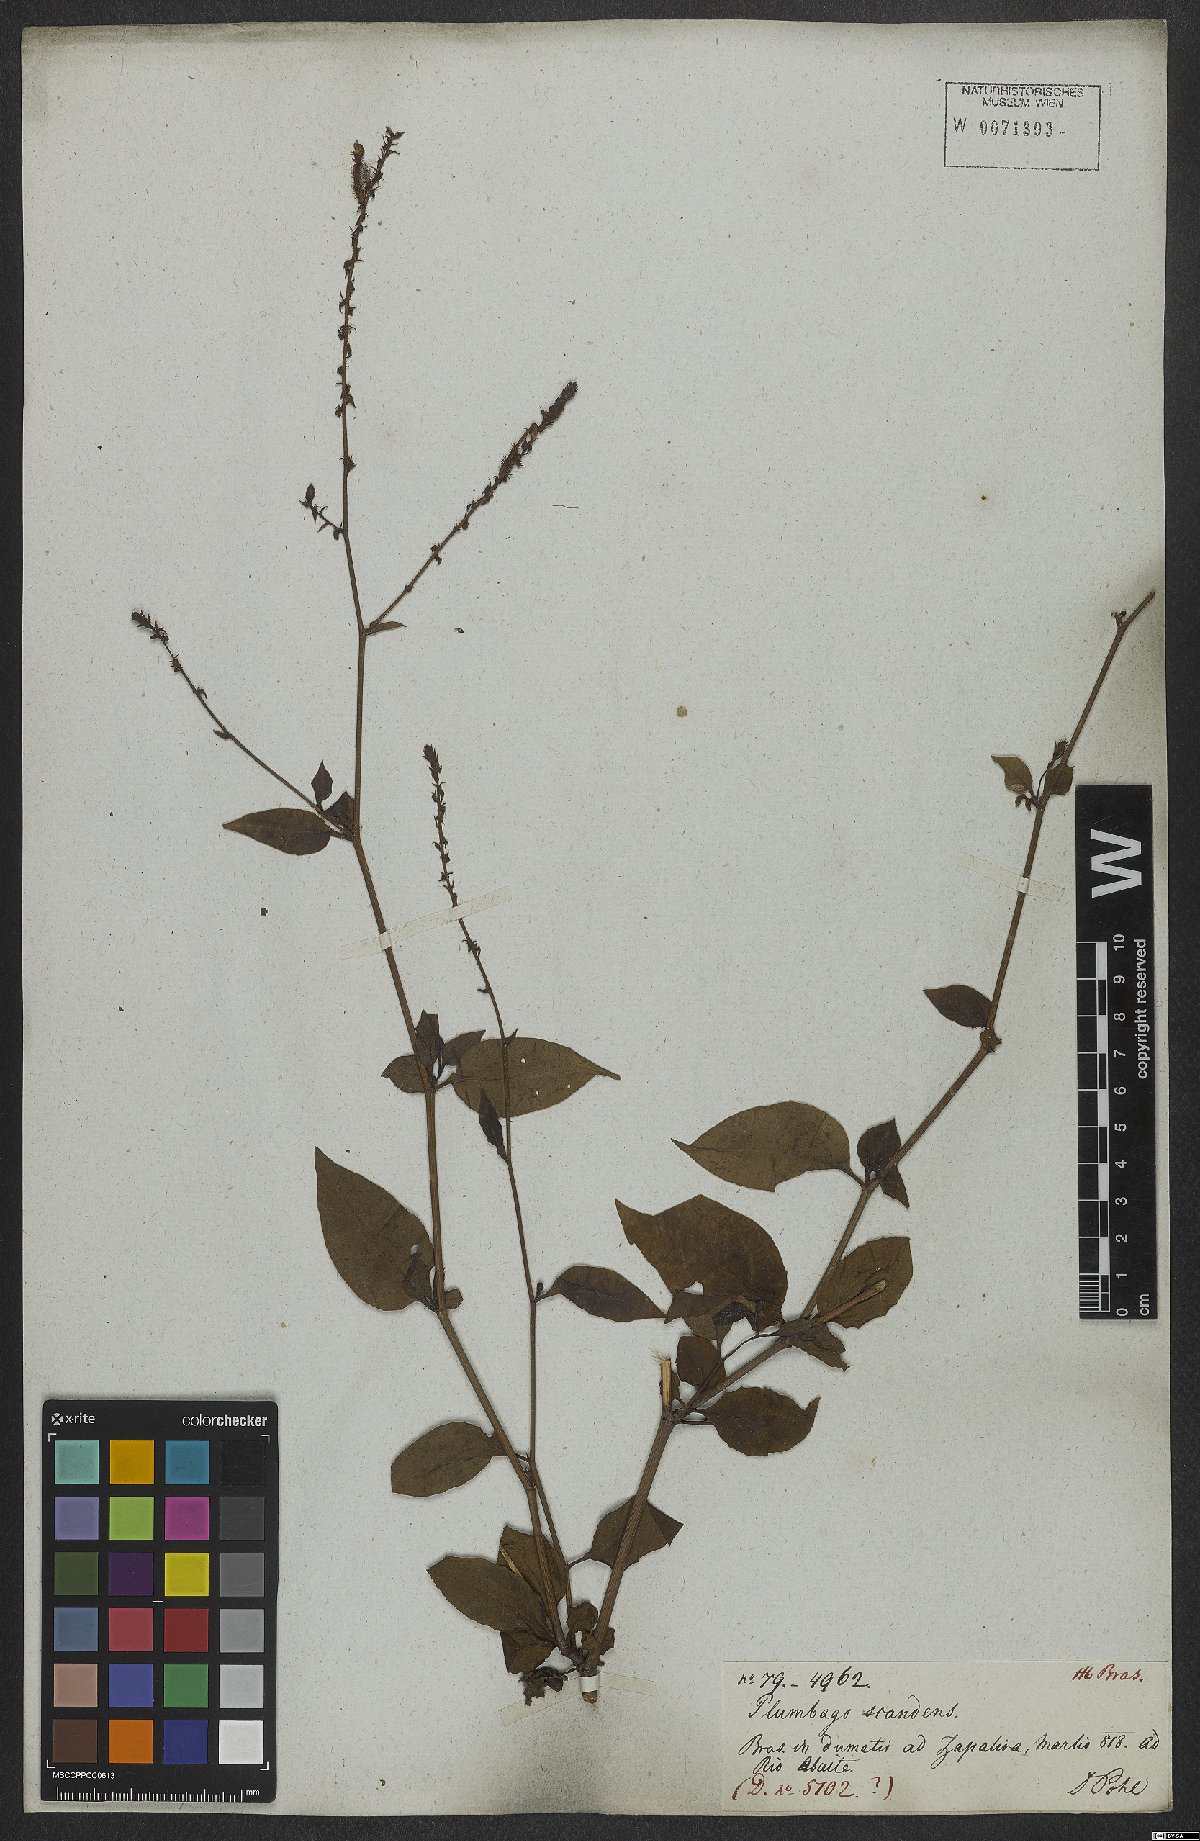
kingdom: Plantae
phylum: Tracheophyta
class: Magnoliopsida
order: Caryophyllales
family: Plumbaginaceae
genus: Plumbago
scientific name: Plumbago zeylanica
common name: Doctorbush
